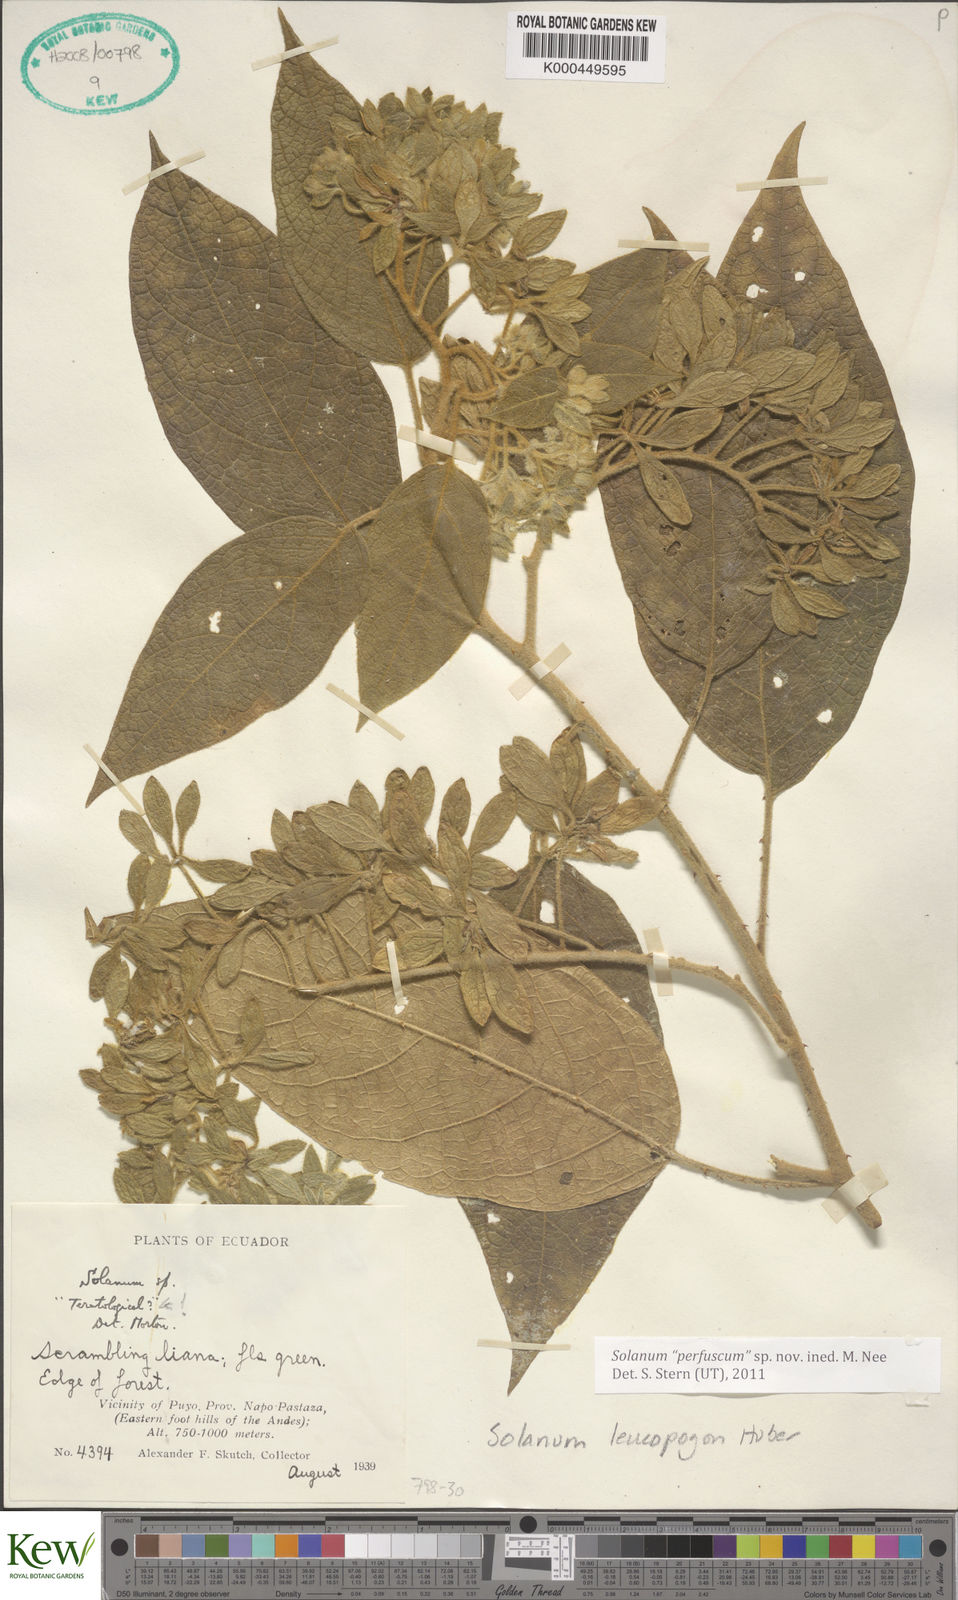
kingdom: Plantae
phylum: Tracheophyta
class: Magnoliopsida
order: Solanales
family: Solanaceae
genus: Solanum
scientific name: Solanum
